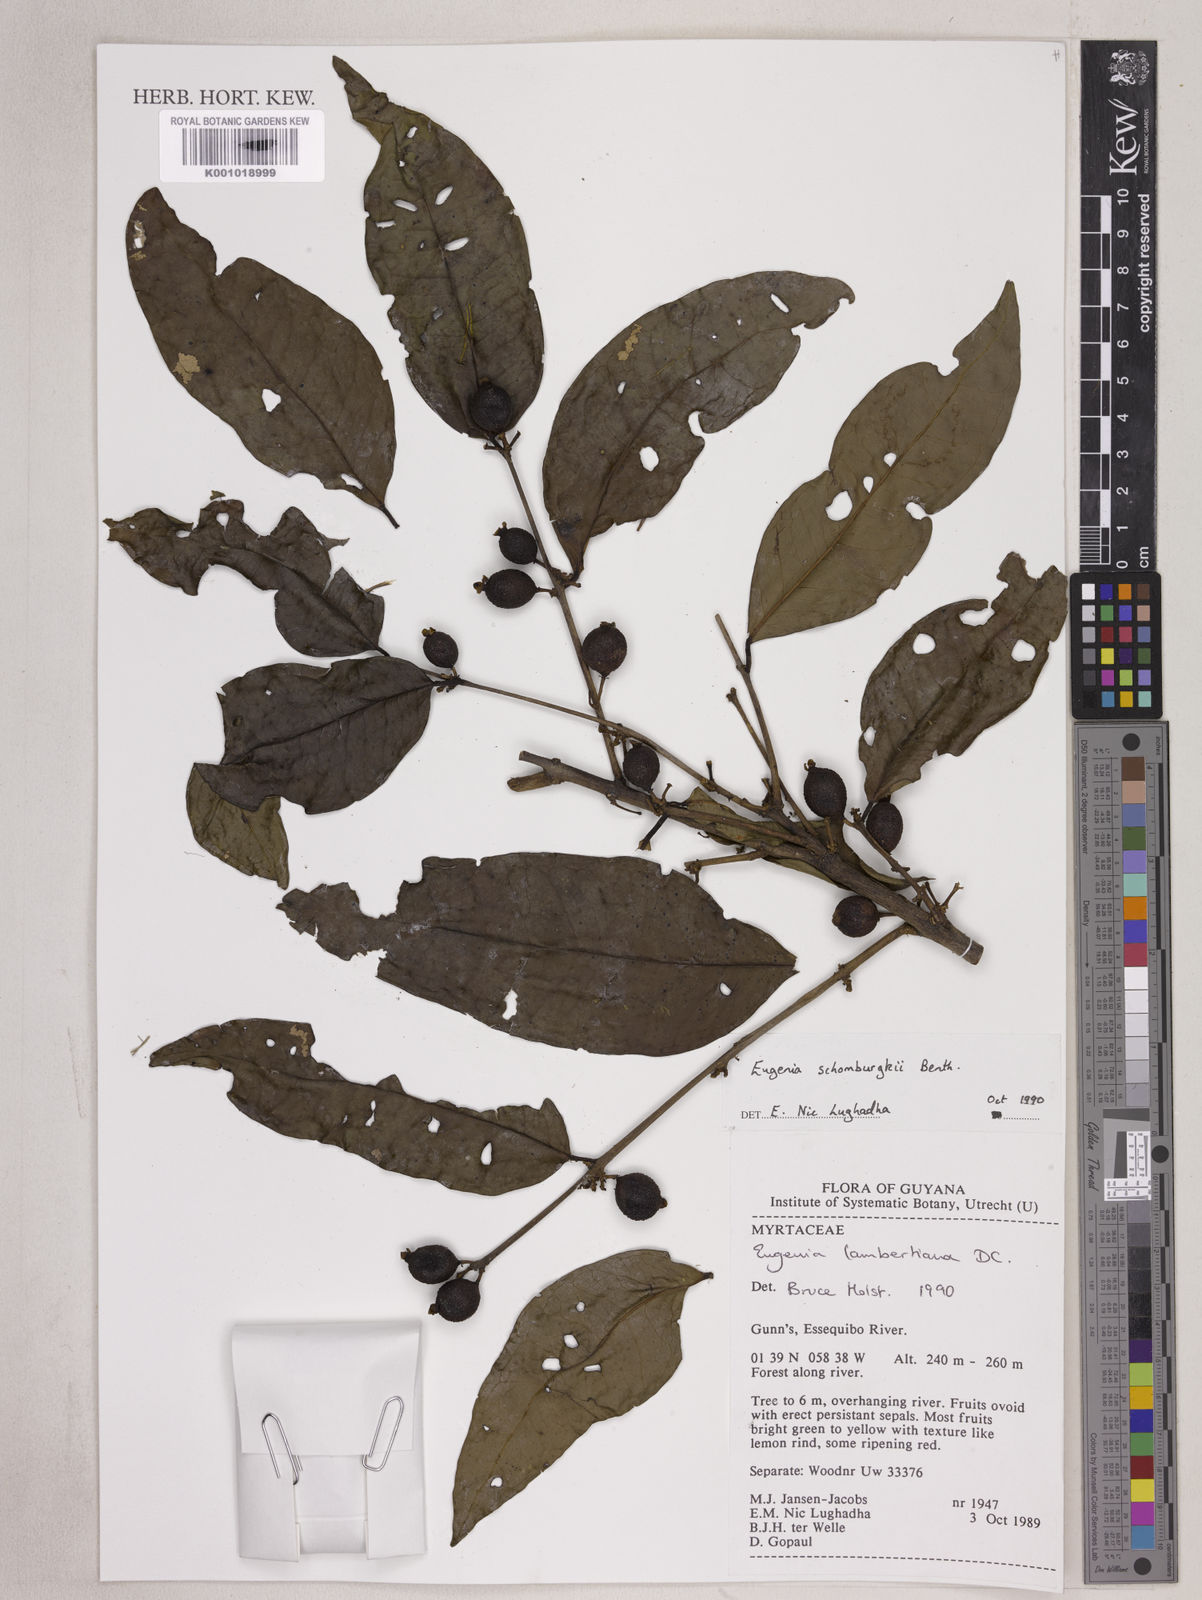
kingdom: Plantae
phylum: Tracheophyta
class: Magnoliopsida
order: Myrtales
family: Myrtaceae
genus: Eugenia
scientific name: Eugenia lambertiana
